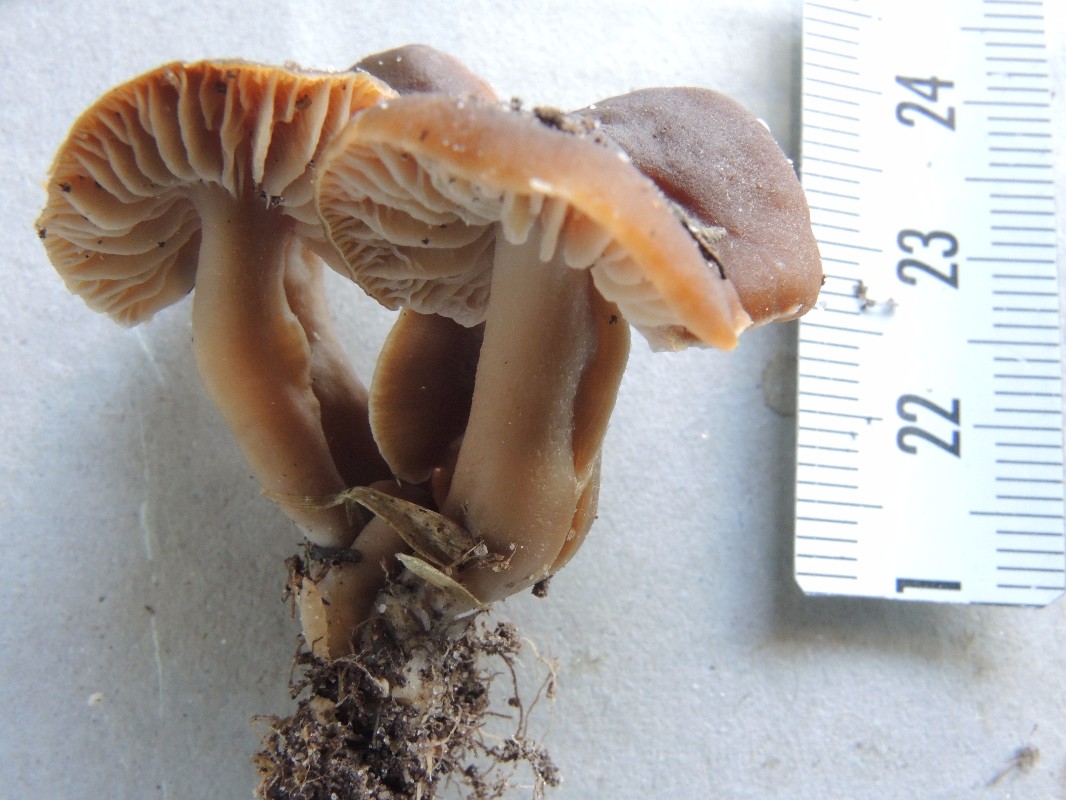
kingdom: Fungi
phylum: Basidiomycota
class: Agaricomycetes
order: Agaricales
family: Clavariaceae
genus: Camarophyllopsis
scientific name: Camarophyllopsis schulzeri
